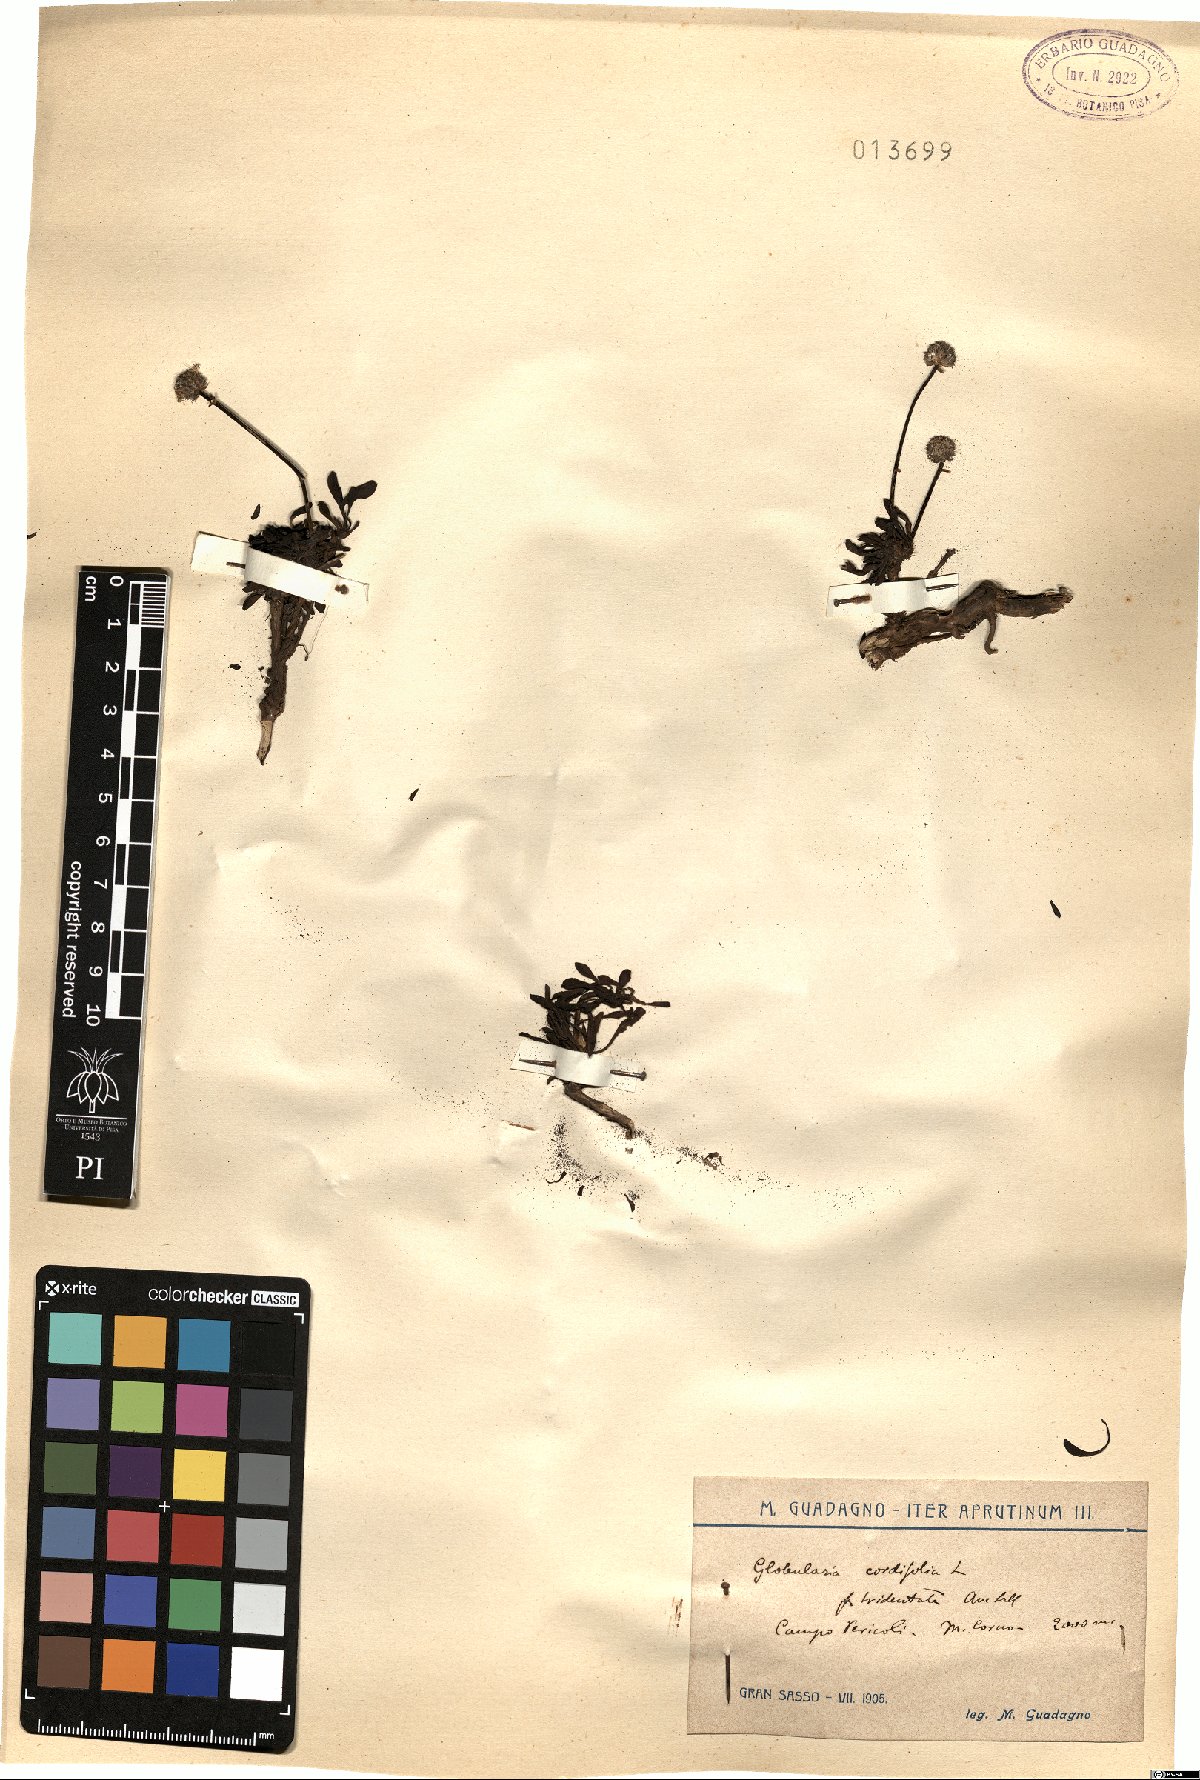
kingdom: Plantae
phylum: Tracheophyta
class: Magnoliopsida
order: Lamiales
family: Plantaginaceae
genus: Globularia
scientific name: Globularia cordifolia
